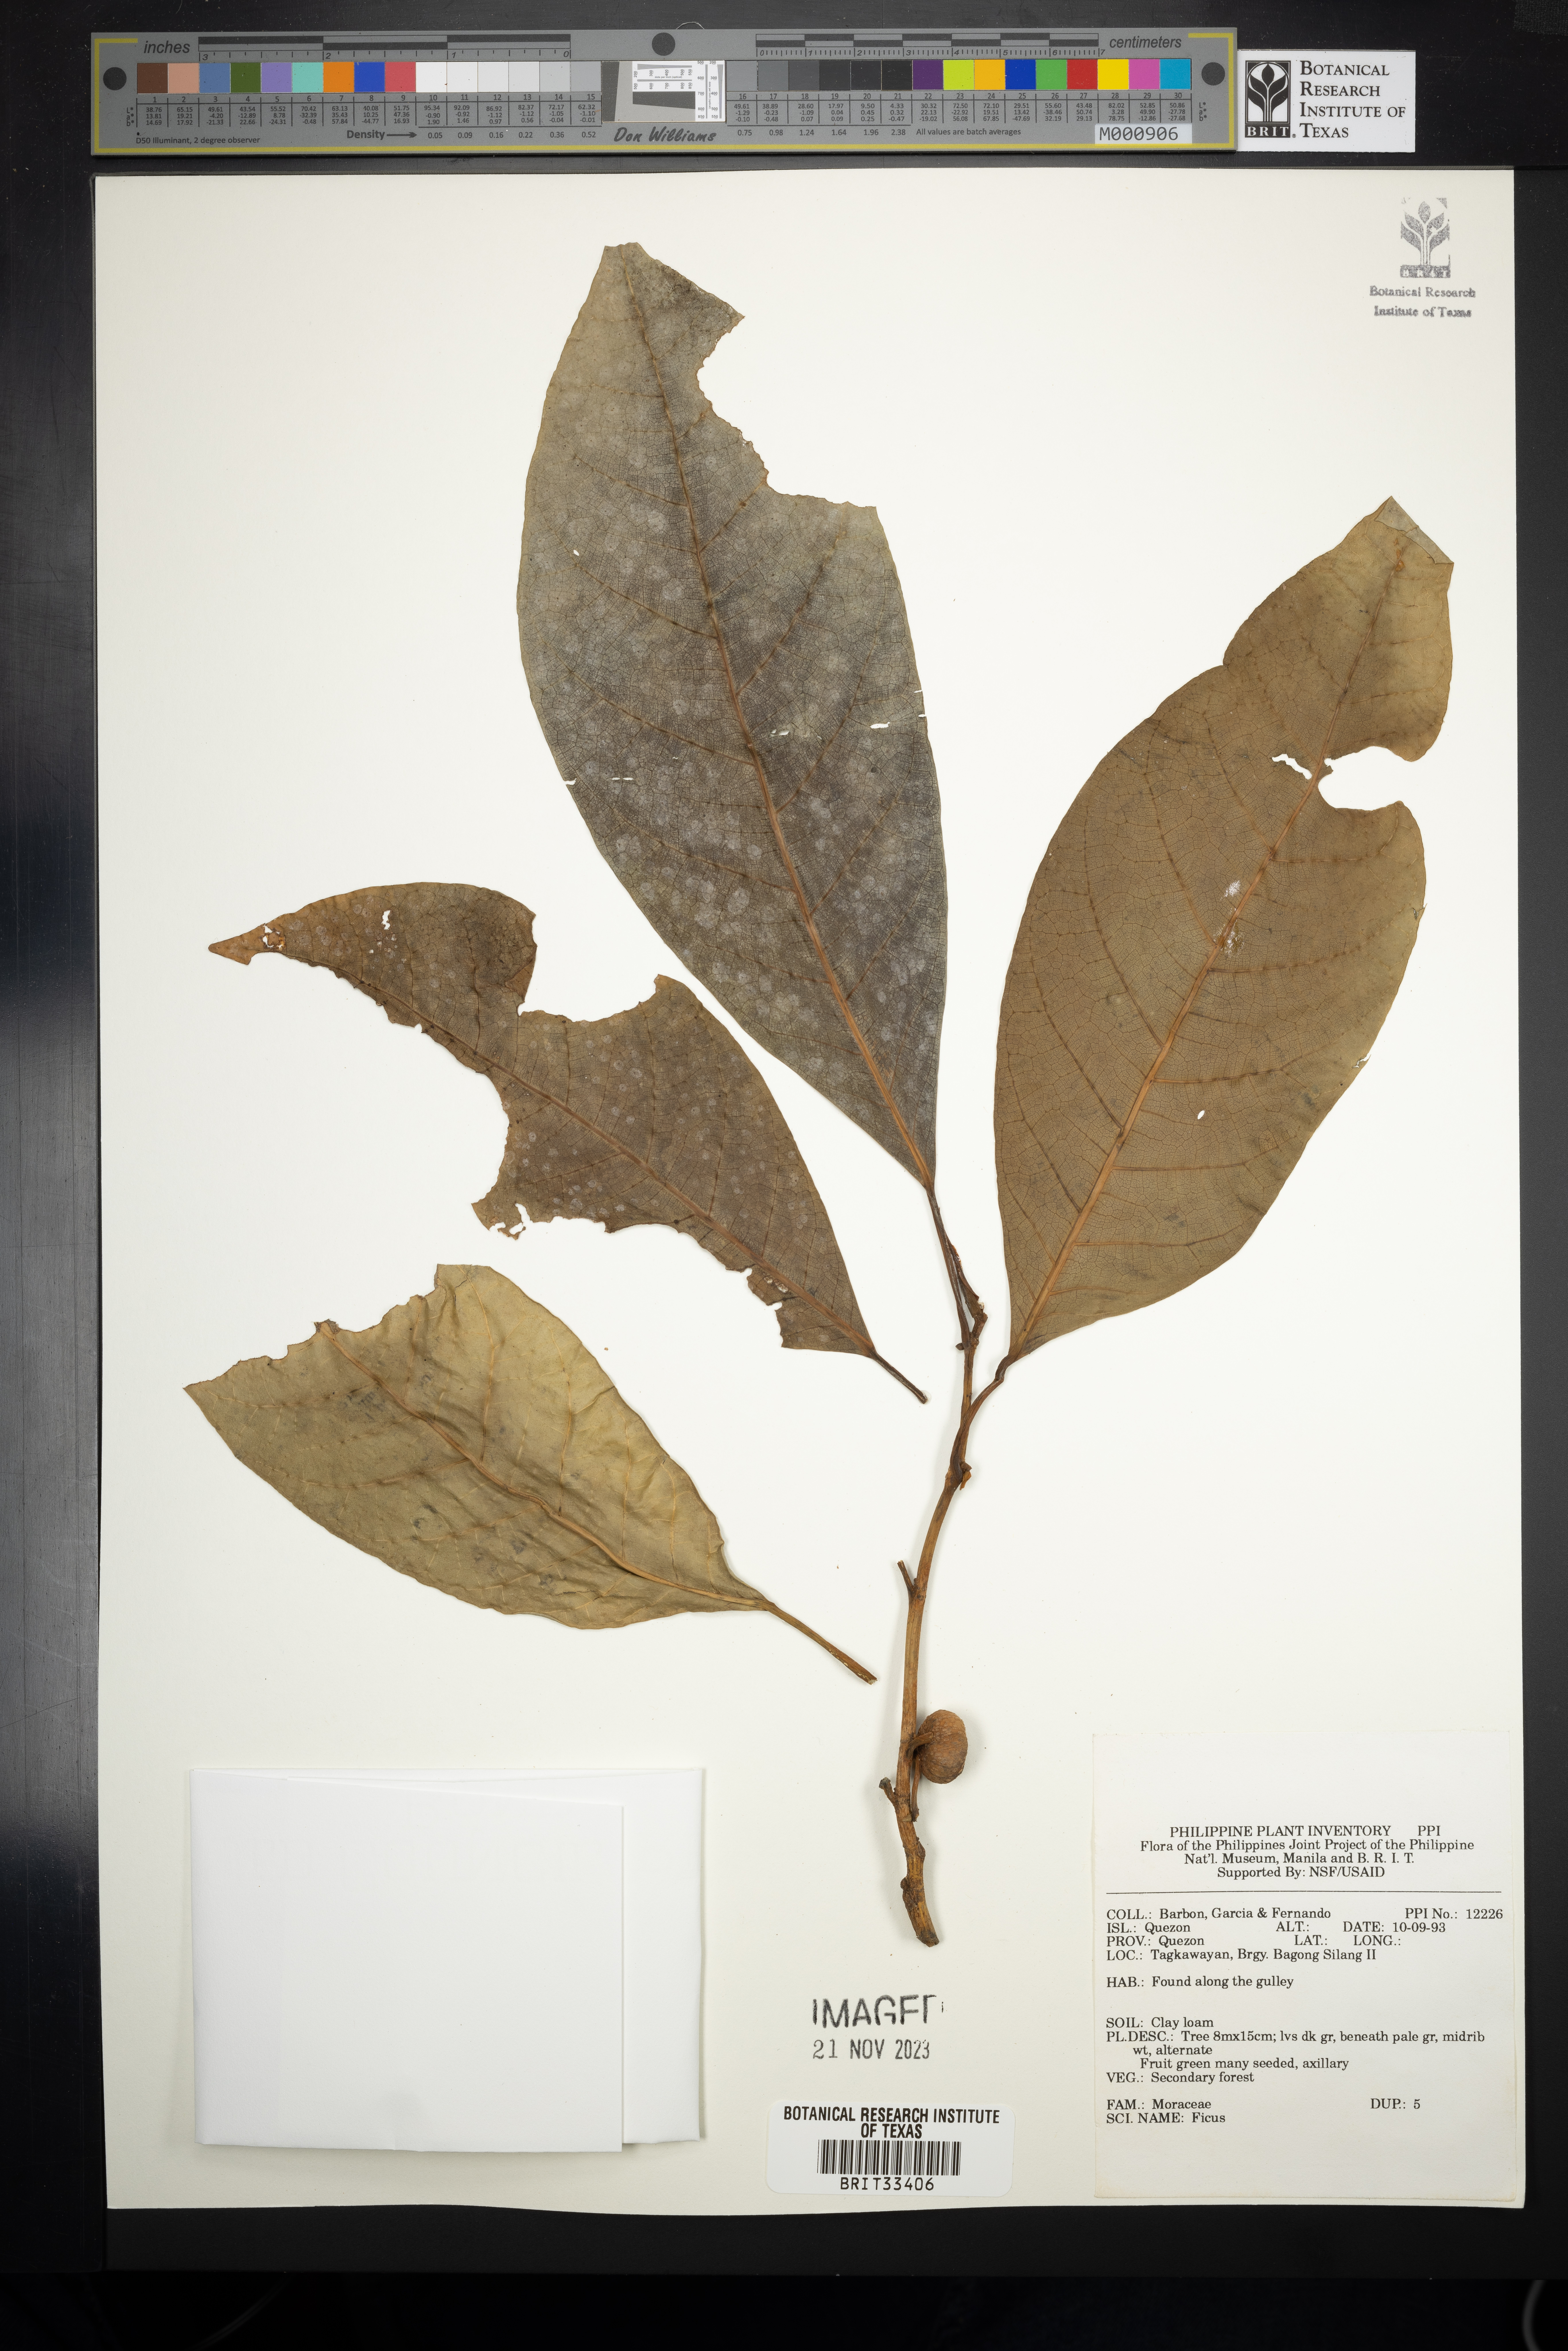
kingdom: Plantae
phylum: Tracheophyta
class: Magnoliopsida
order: Rosales
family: Moraceae
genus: Ficus
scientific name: Ficus
